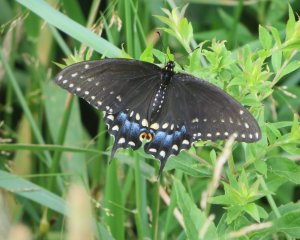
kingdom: Animalia
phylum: Arthropoda
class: Insecta
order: Lepidoptera
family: Papilionidae
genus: Papilio
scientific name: Papilio polyxenes
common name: Black Swallowtail
